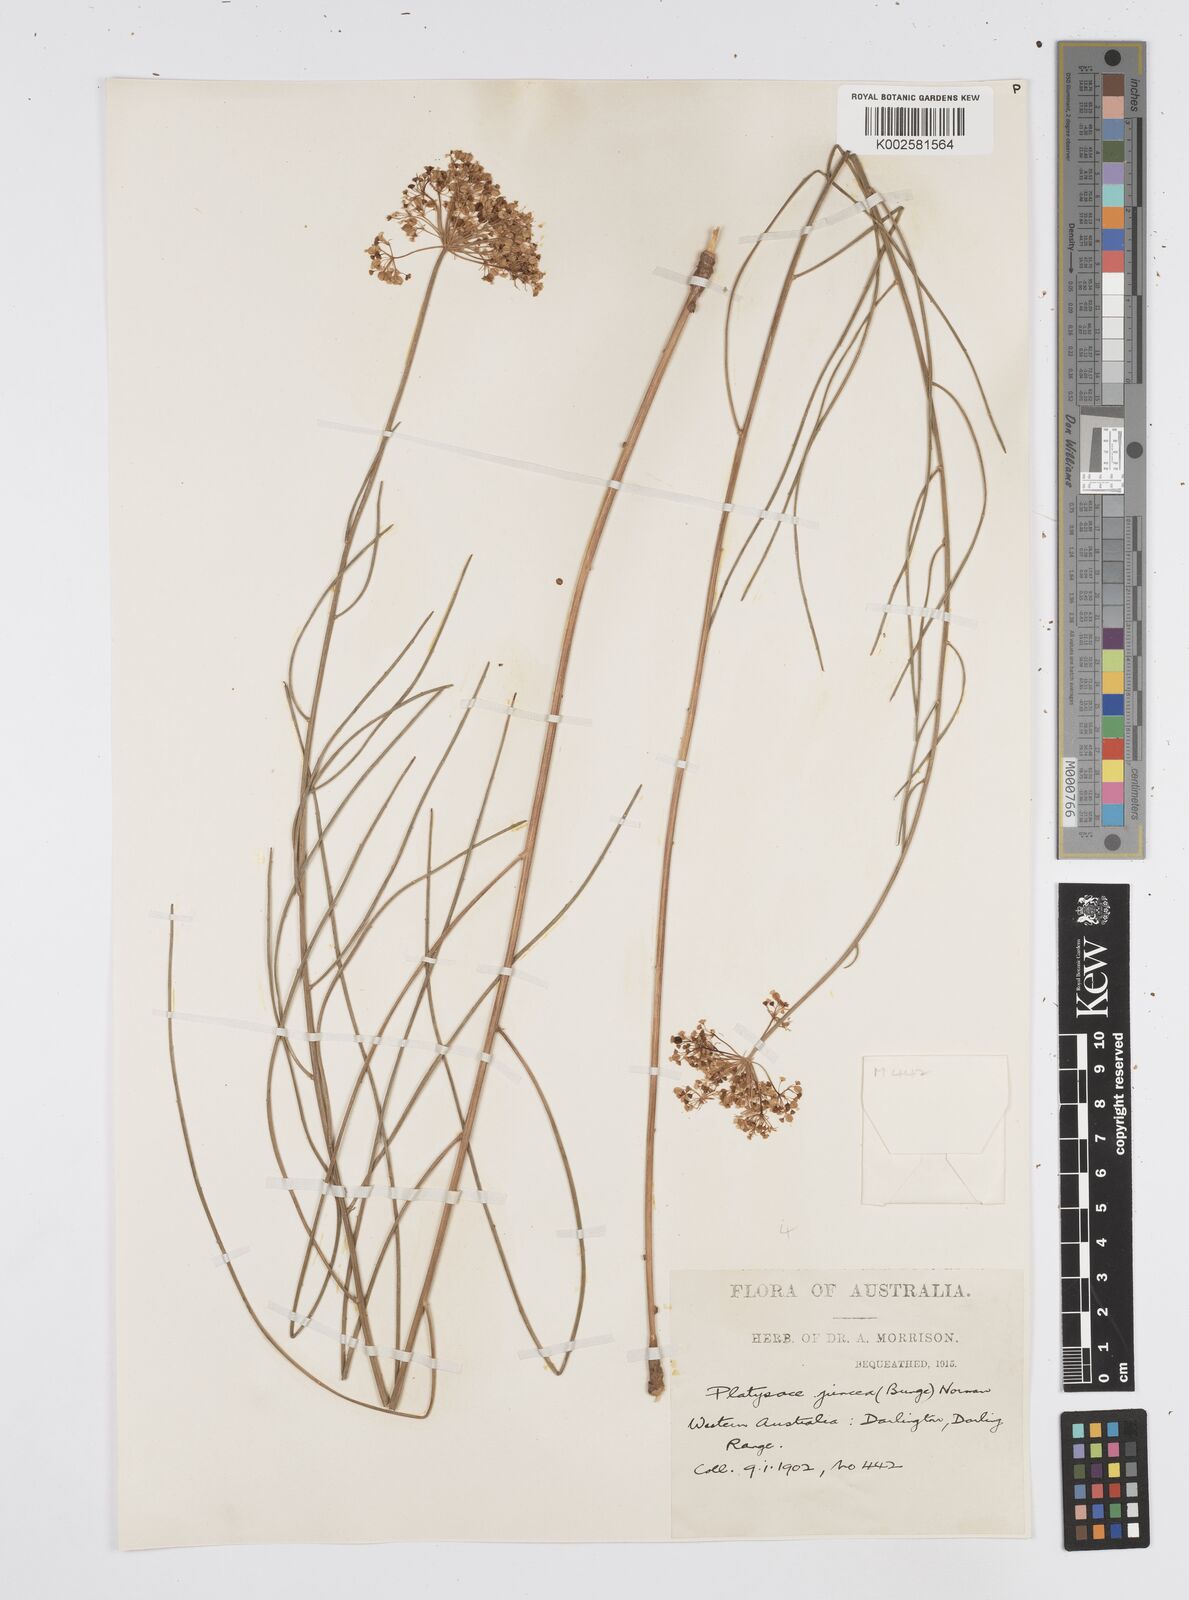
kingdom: Plantae
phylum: Tracheophyta
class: Magnoliopsida
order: Apiales
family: Apiaceae
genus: Platysace
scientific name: Platysace juncea
